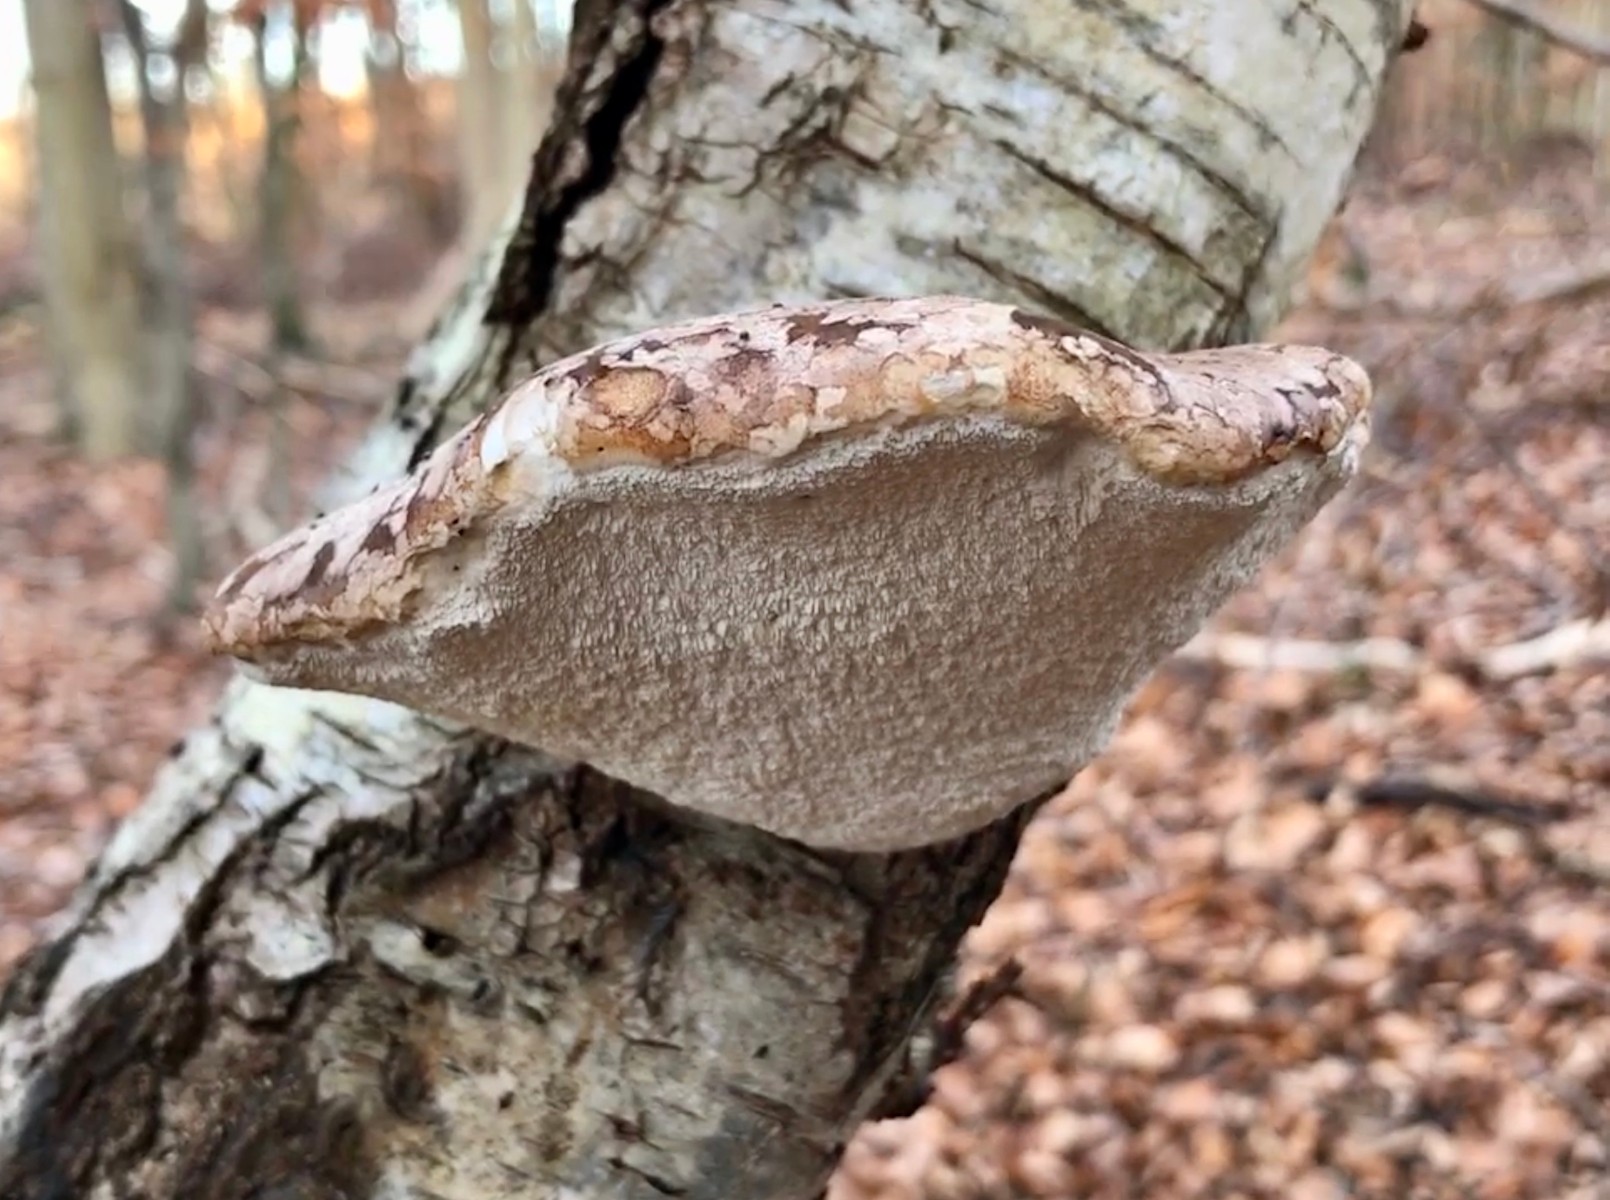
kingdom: Fungi
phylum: Basidiomycota
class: Agaricomycetes
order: Polyporales
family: Fomitopsidaceae
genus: Fomitopsis
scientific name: Fomitopsis betulina
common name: birkeporesvamp
